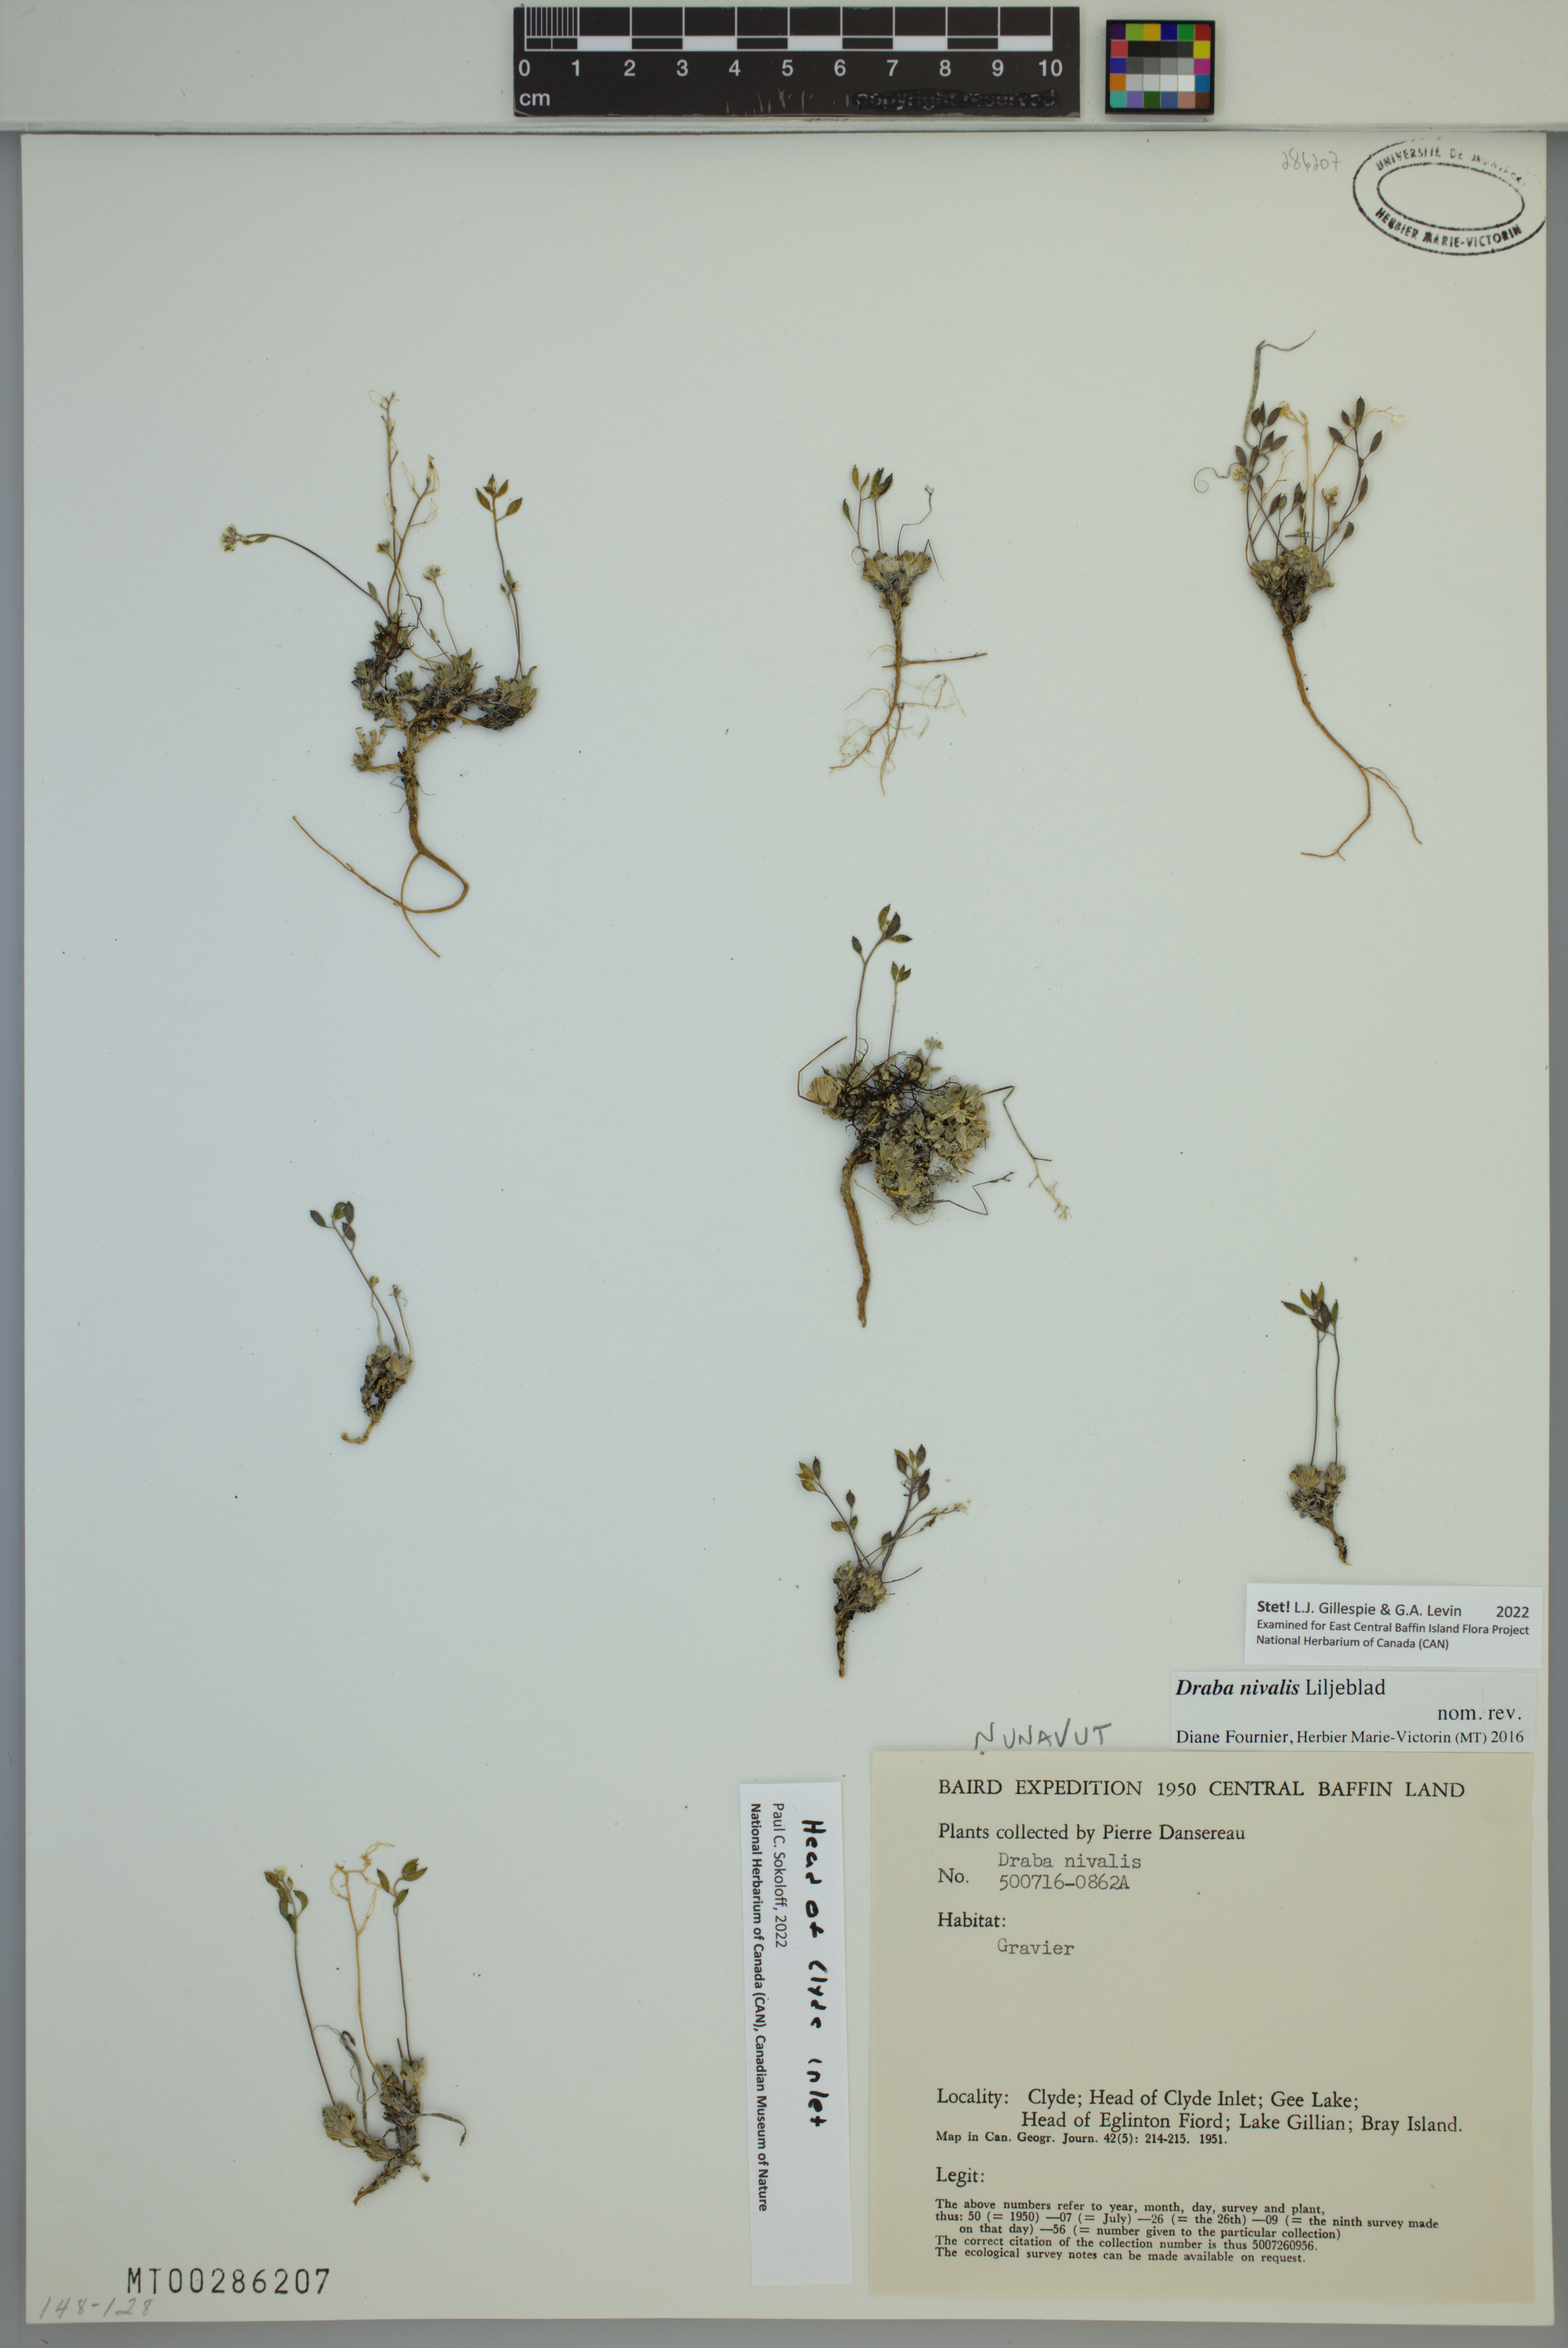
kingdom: Plantae
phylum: Tracheophyta
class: Magnoliopsida
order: Brassicales
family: Brassicaceae
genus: Draba
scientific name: Draba nivalis
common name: Snow draba
